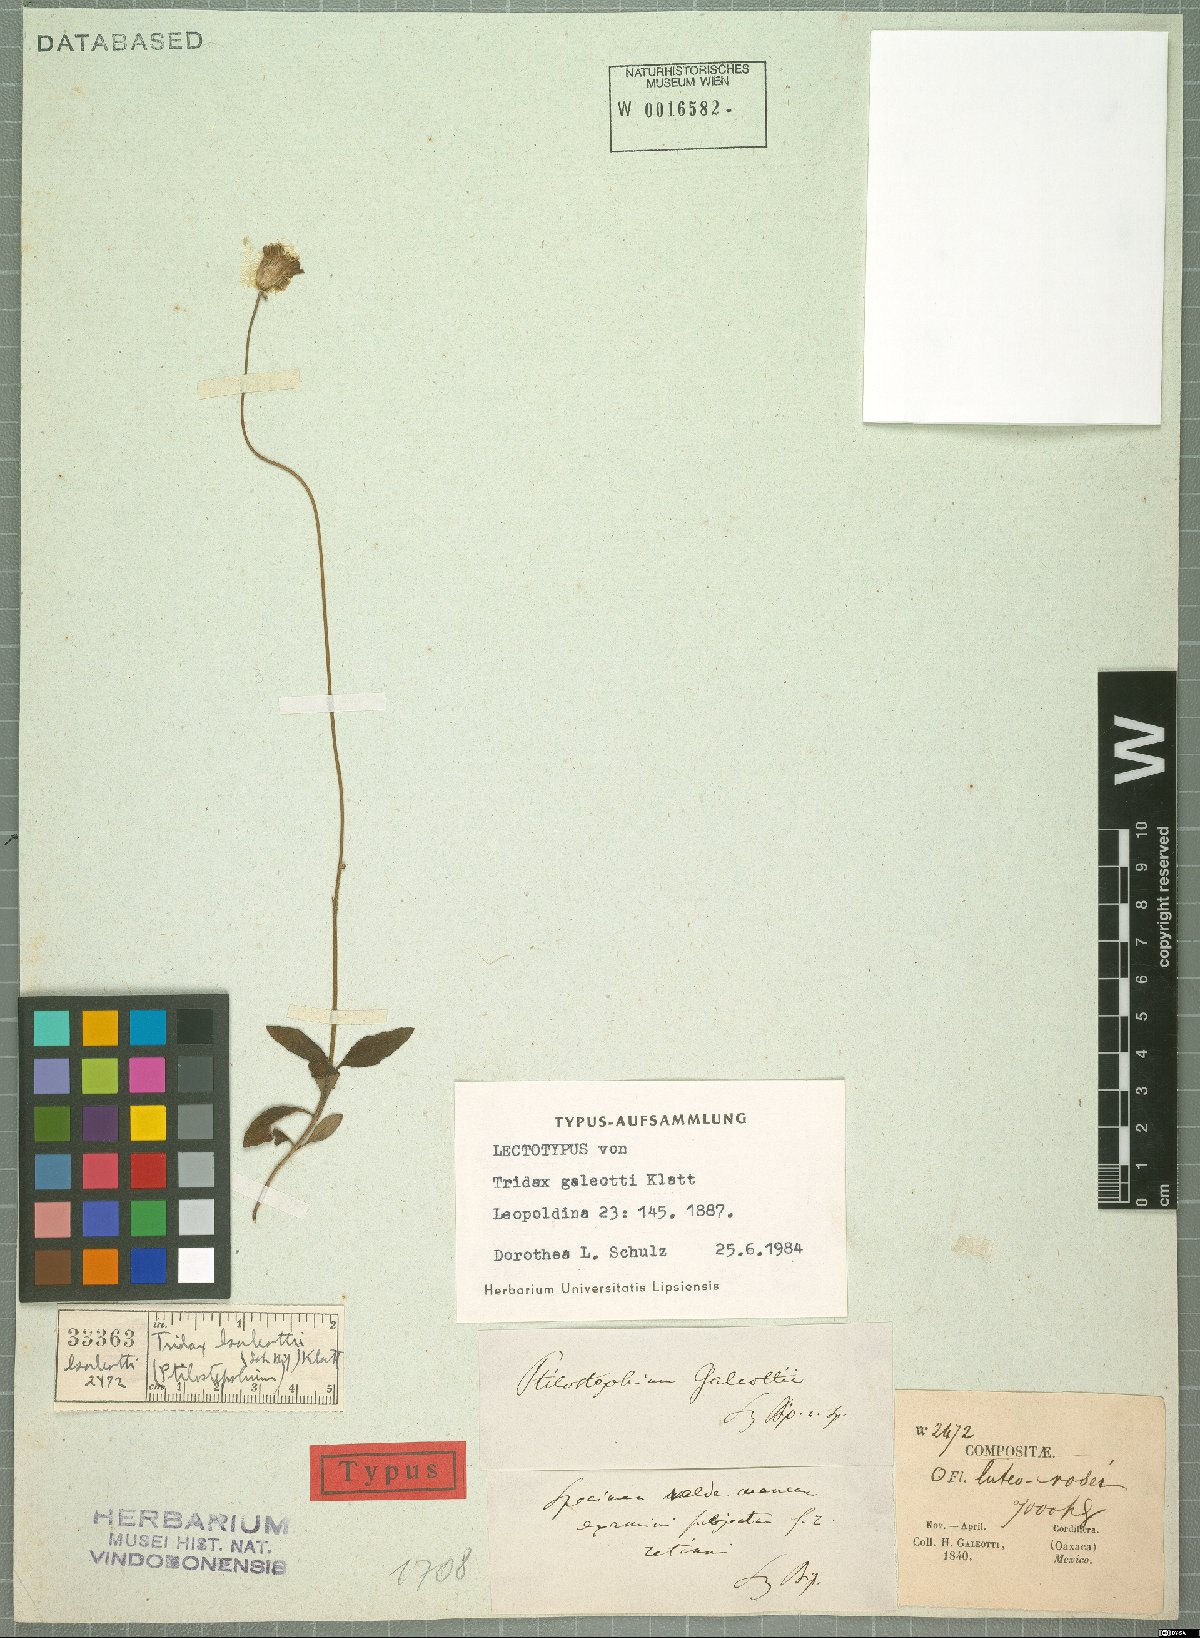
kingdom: Plantae
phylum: Tracheophyta
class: Magnoliopsida
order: Asterales
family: Asteraceae
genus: Tridax
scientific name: Tridax brachylepis
